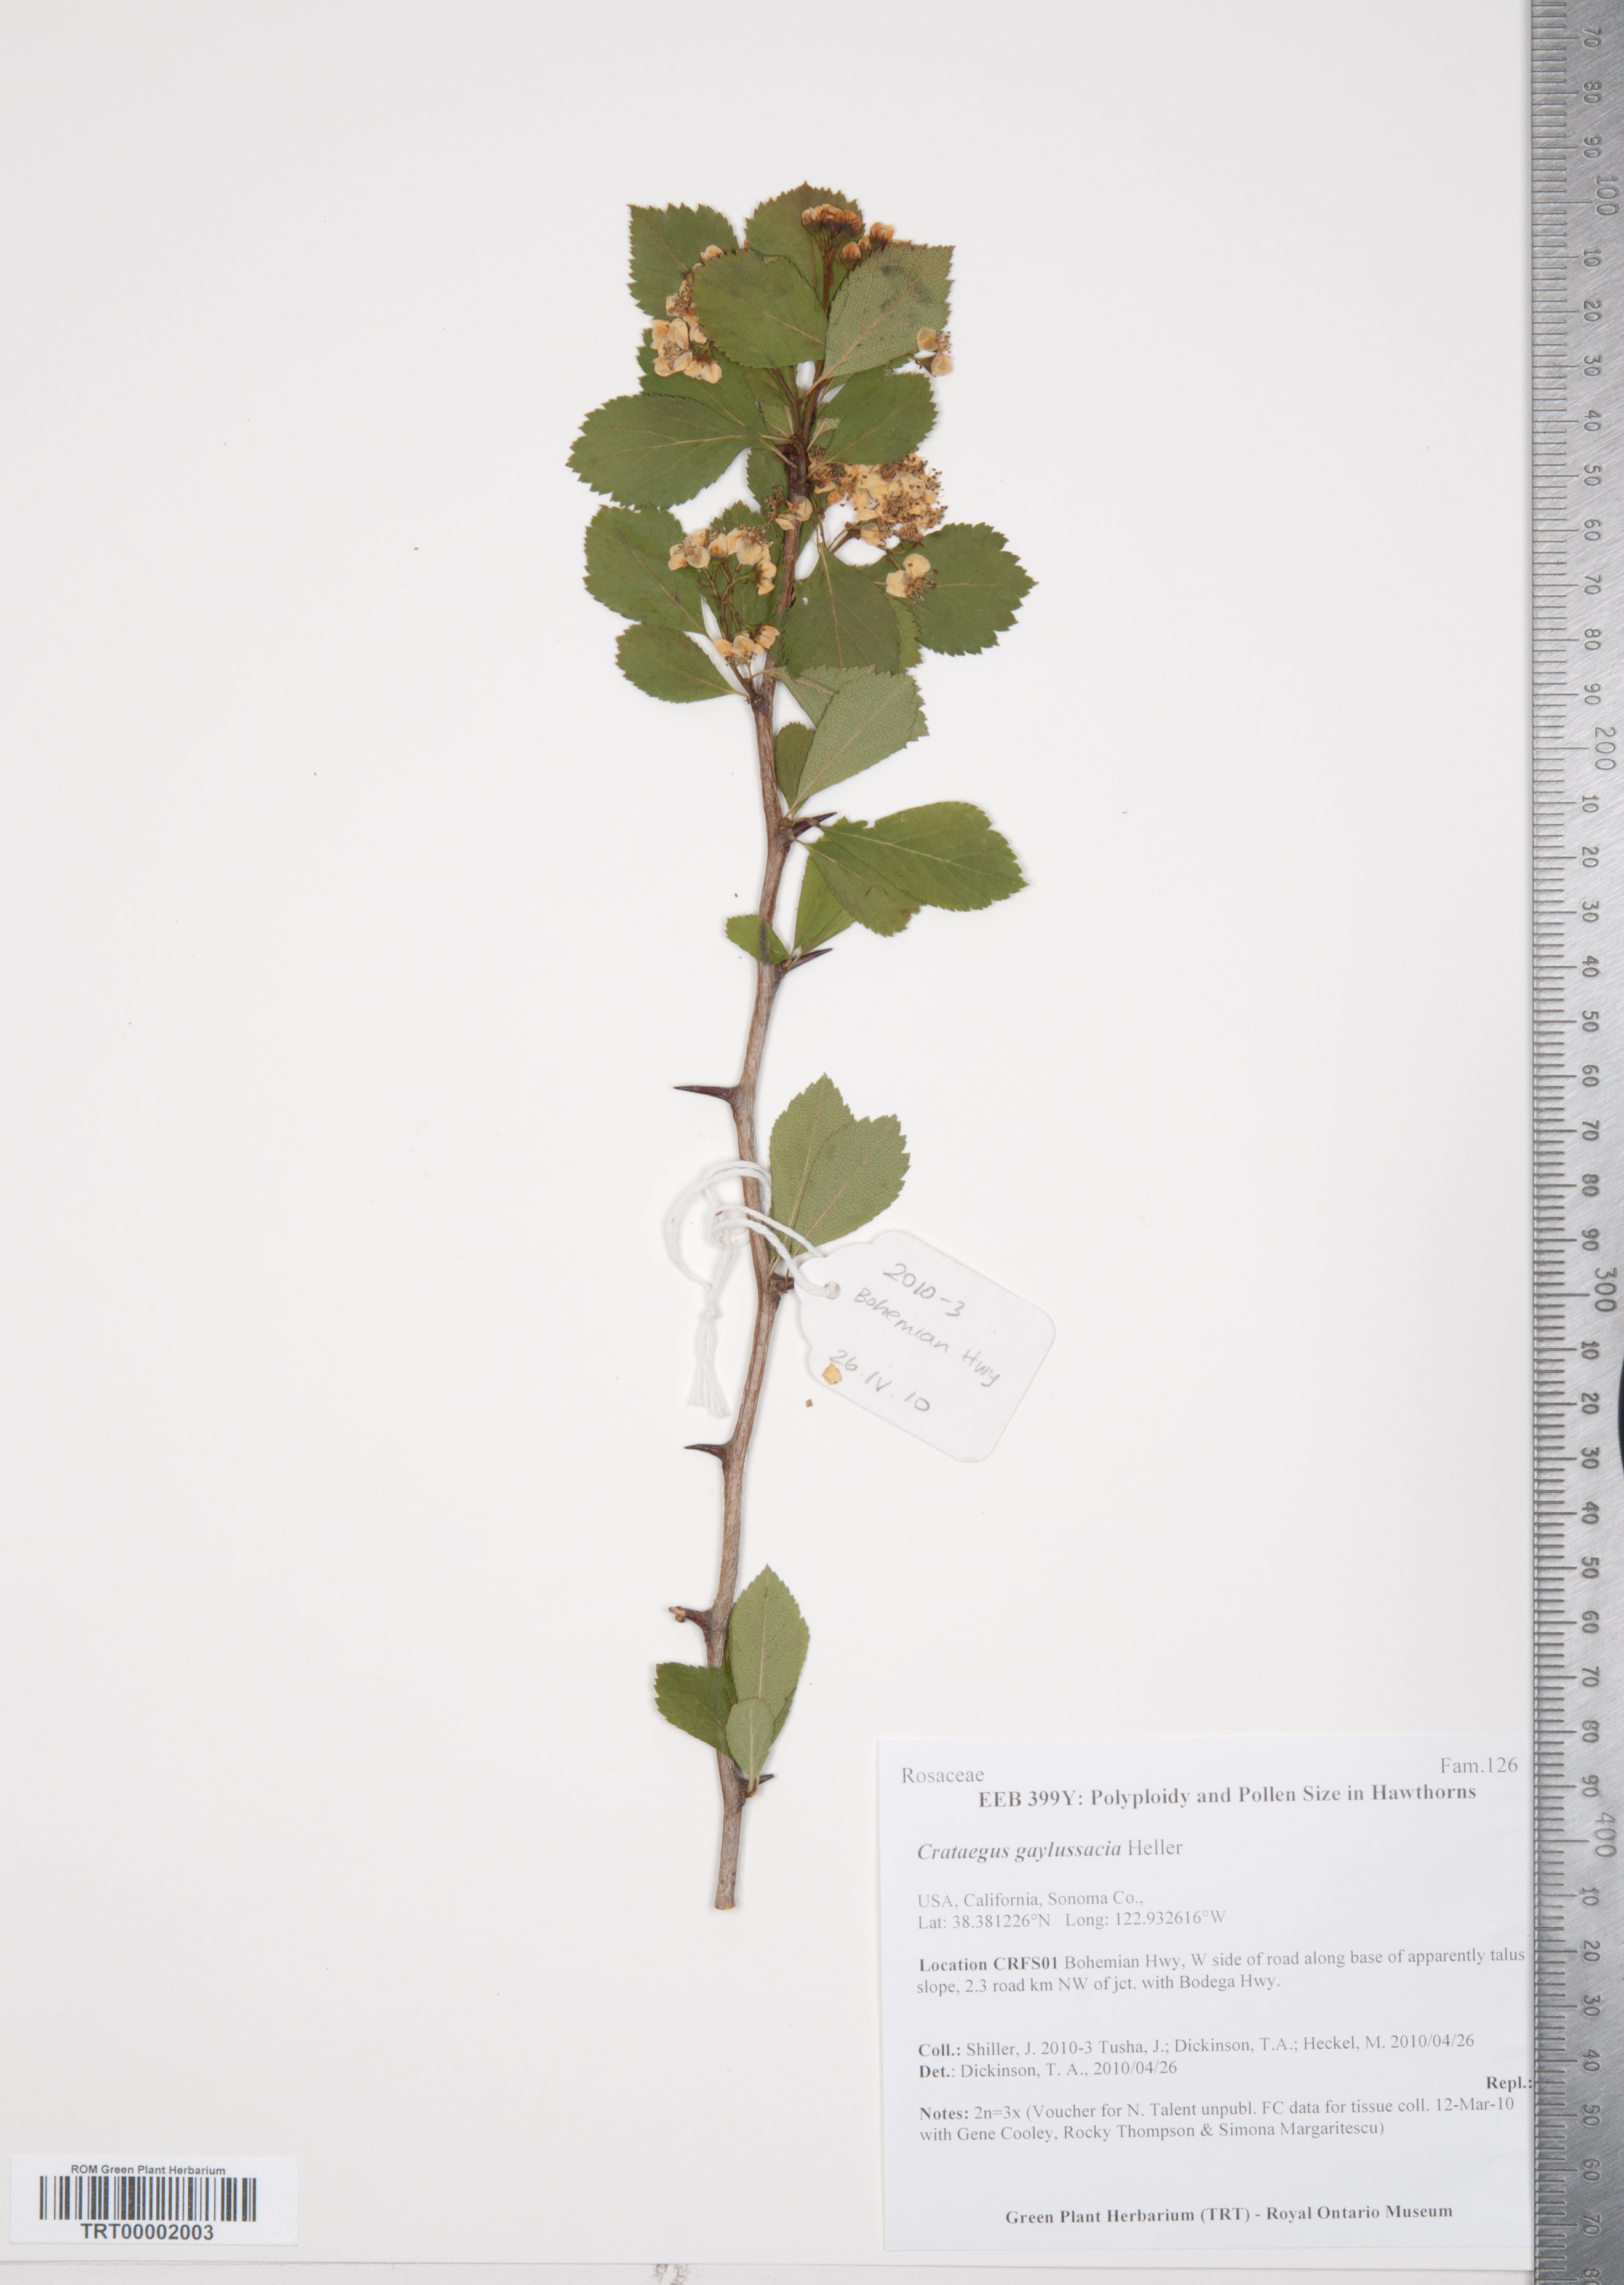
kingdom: Plantae
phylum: Tracheophyta
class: Magnoliopsida
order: Rosales
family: Rosaceae
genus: Crataegus
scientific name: Crataegus gaylussacia
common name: Huckleberry hawthorn
